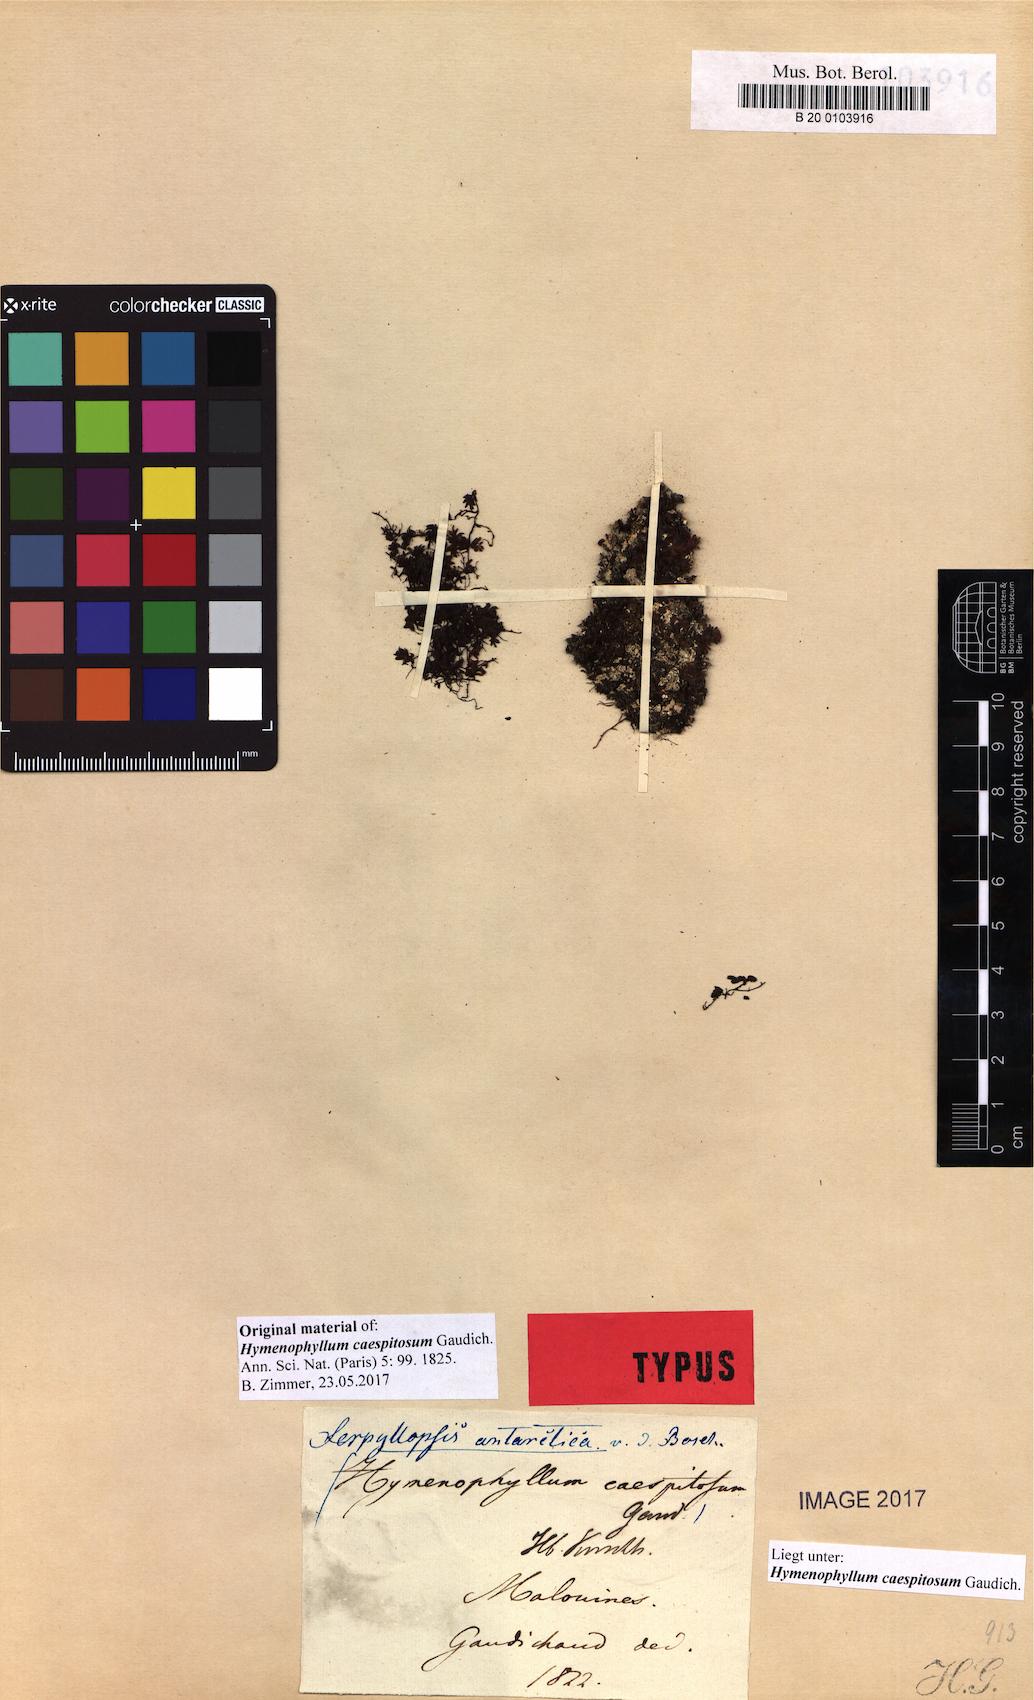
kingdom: Plantae
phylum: Tracheophyta
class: Polypodiopsida
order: Hymenophyllales
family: Hymenophyllaceae
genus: Hymenophyllum
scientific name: Hymenophyllum caespitosum
